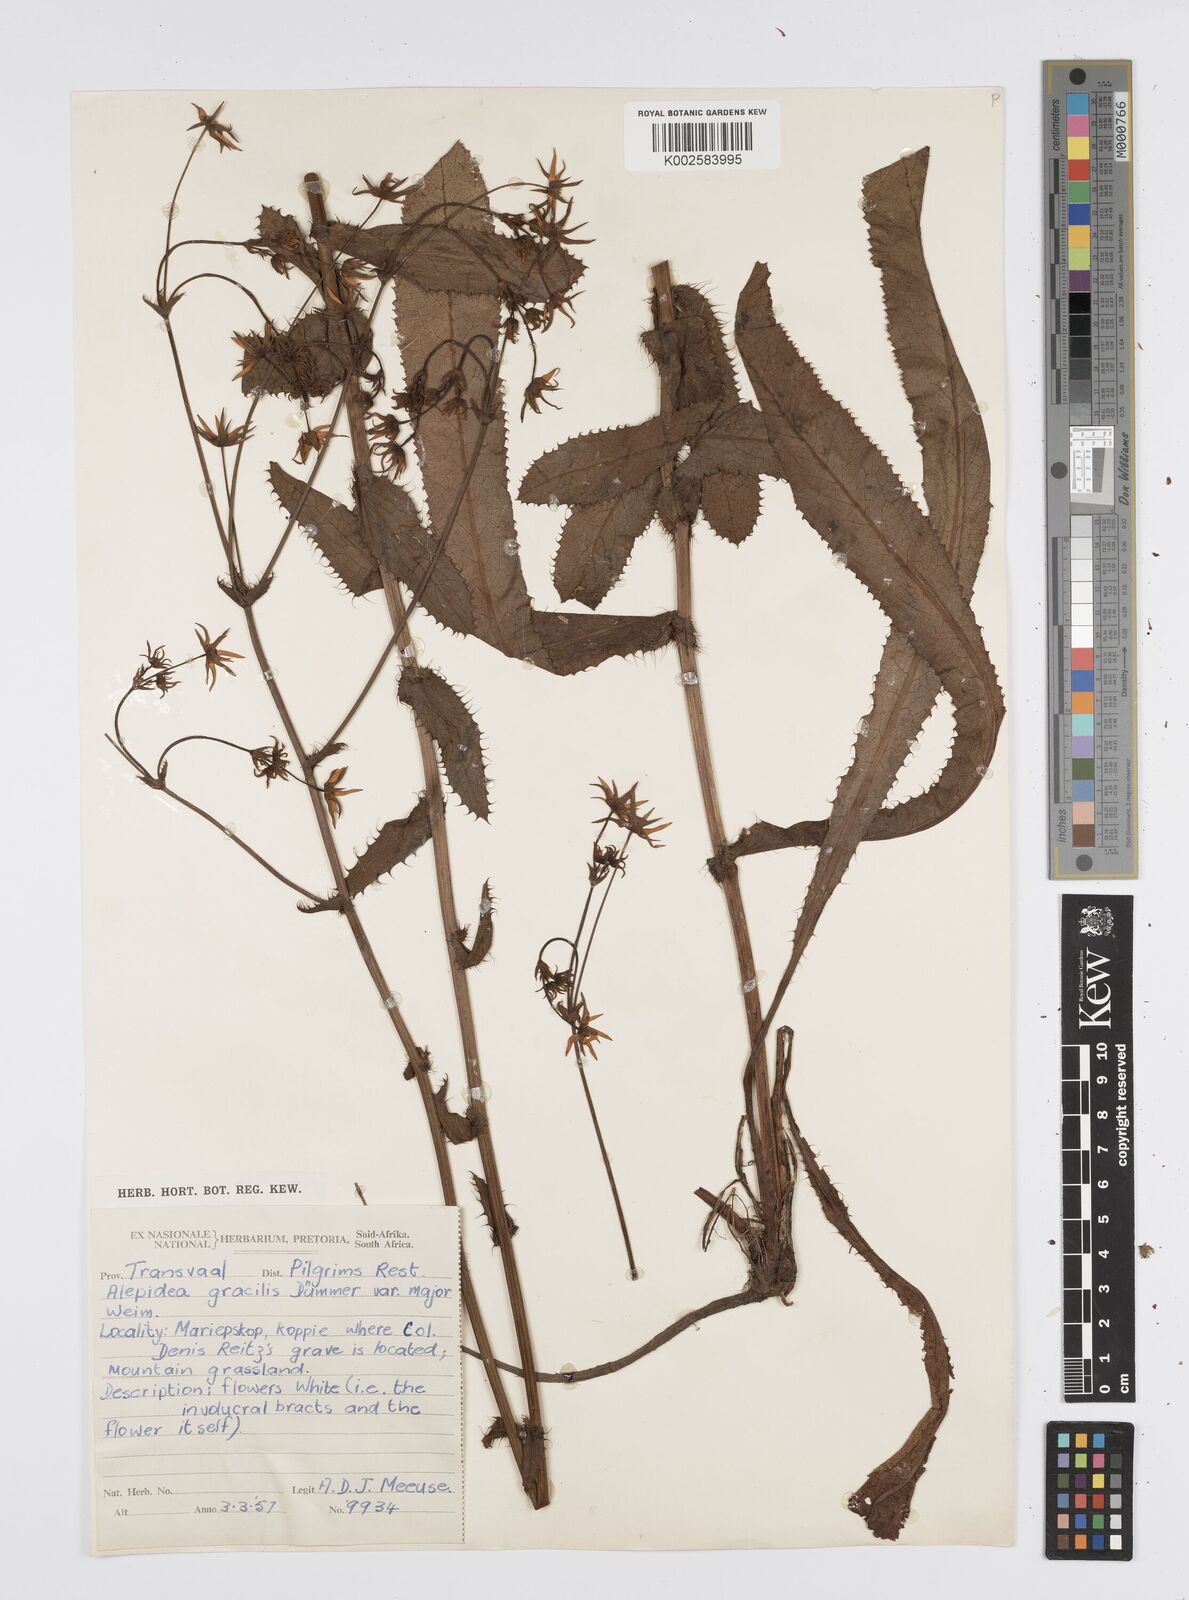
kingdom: Plantae
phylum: Tracheophyta
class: Magnoliopsida
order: Apiales
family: Apiaceae
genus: Alepidea
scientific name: Alepidea
